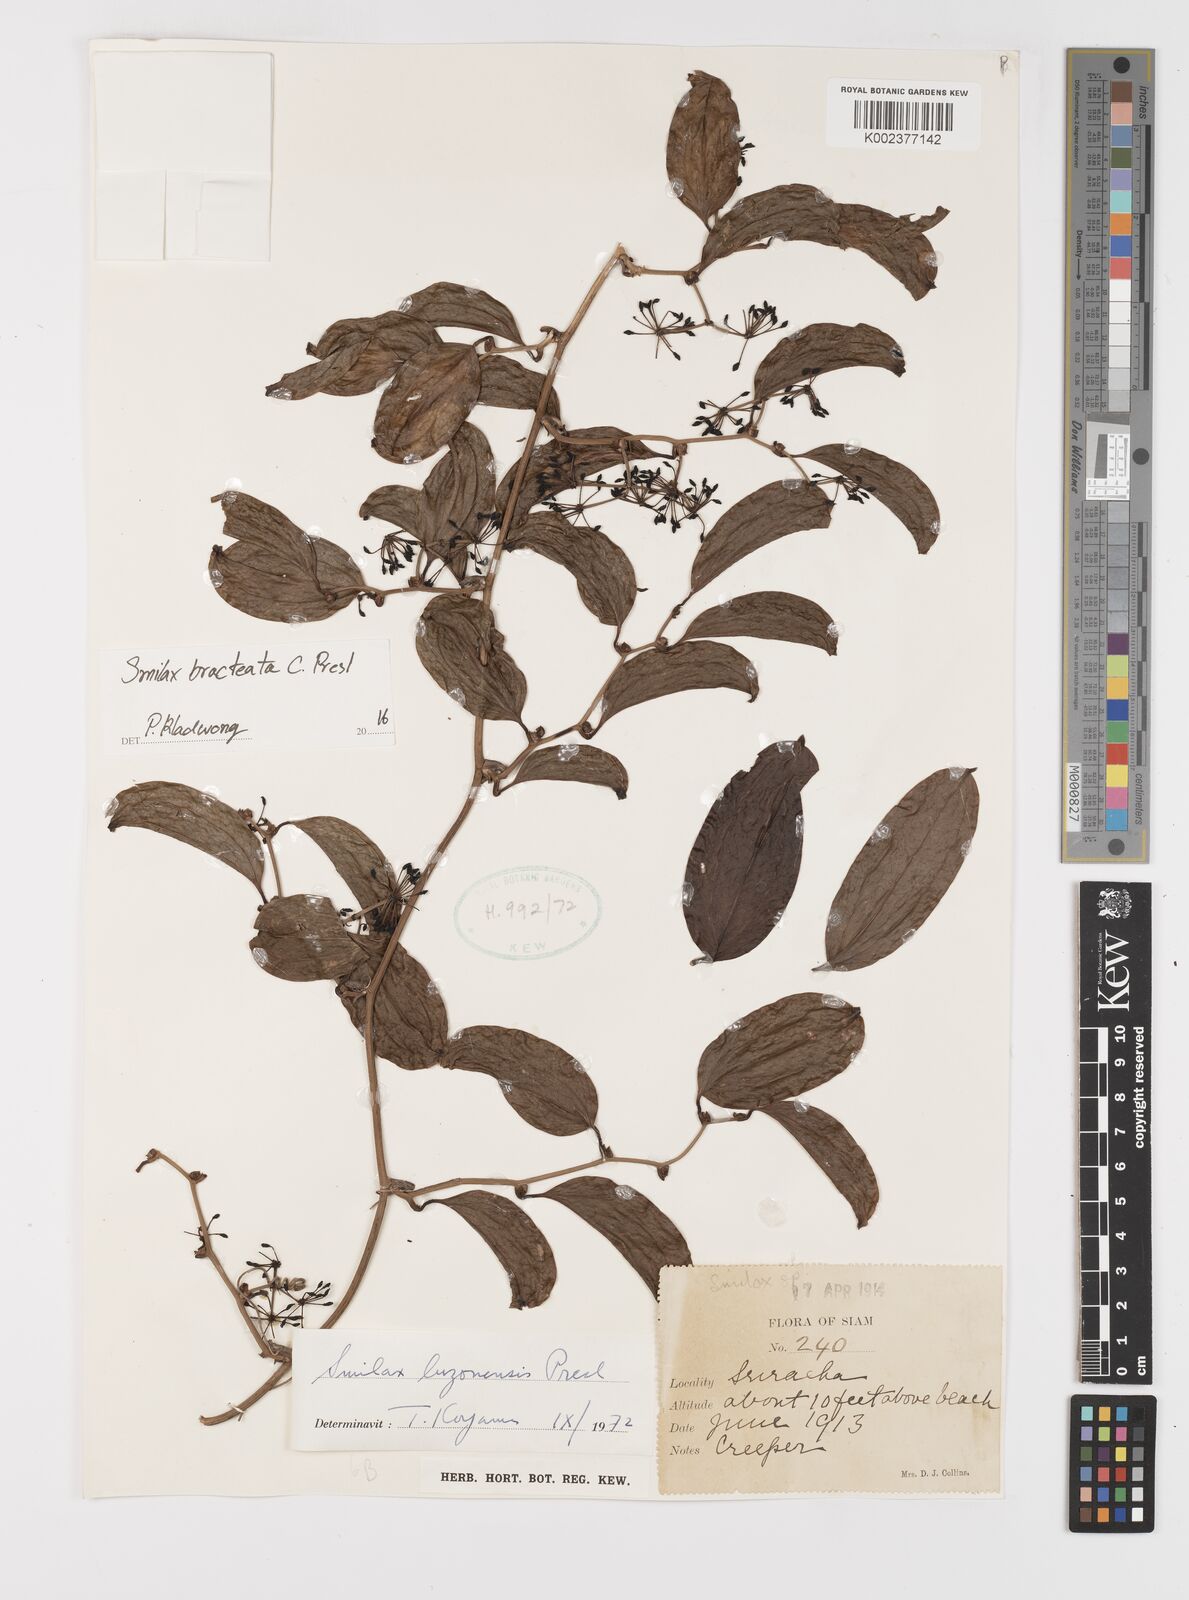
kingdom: Plantae
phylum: Tracheophyta
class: Liliopsida
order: Liliales
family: Smilacaceae
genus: Smilax
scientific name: Smilax bracteata
